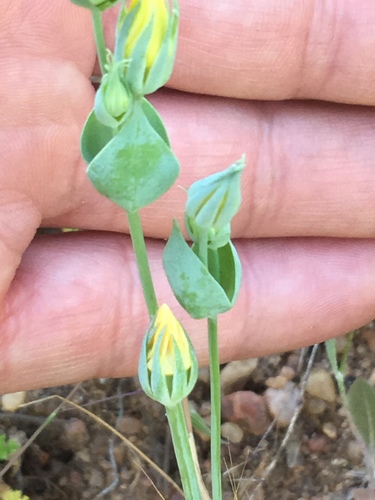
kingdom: Plantae
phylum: Tracheophyta
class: Magnoliopsida
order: Gentianales
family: Gentianaceae
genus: Blackstonia
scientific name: Blackstonia perfoliata
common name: Yellow-wort
